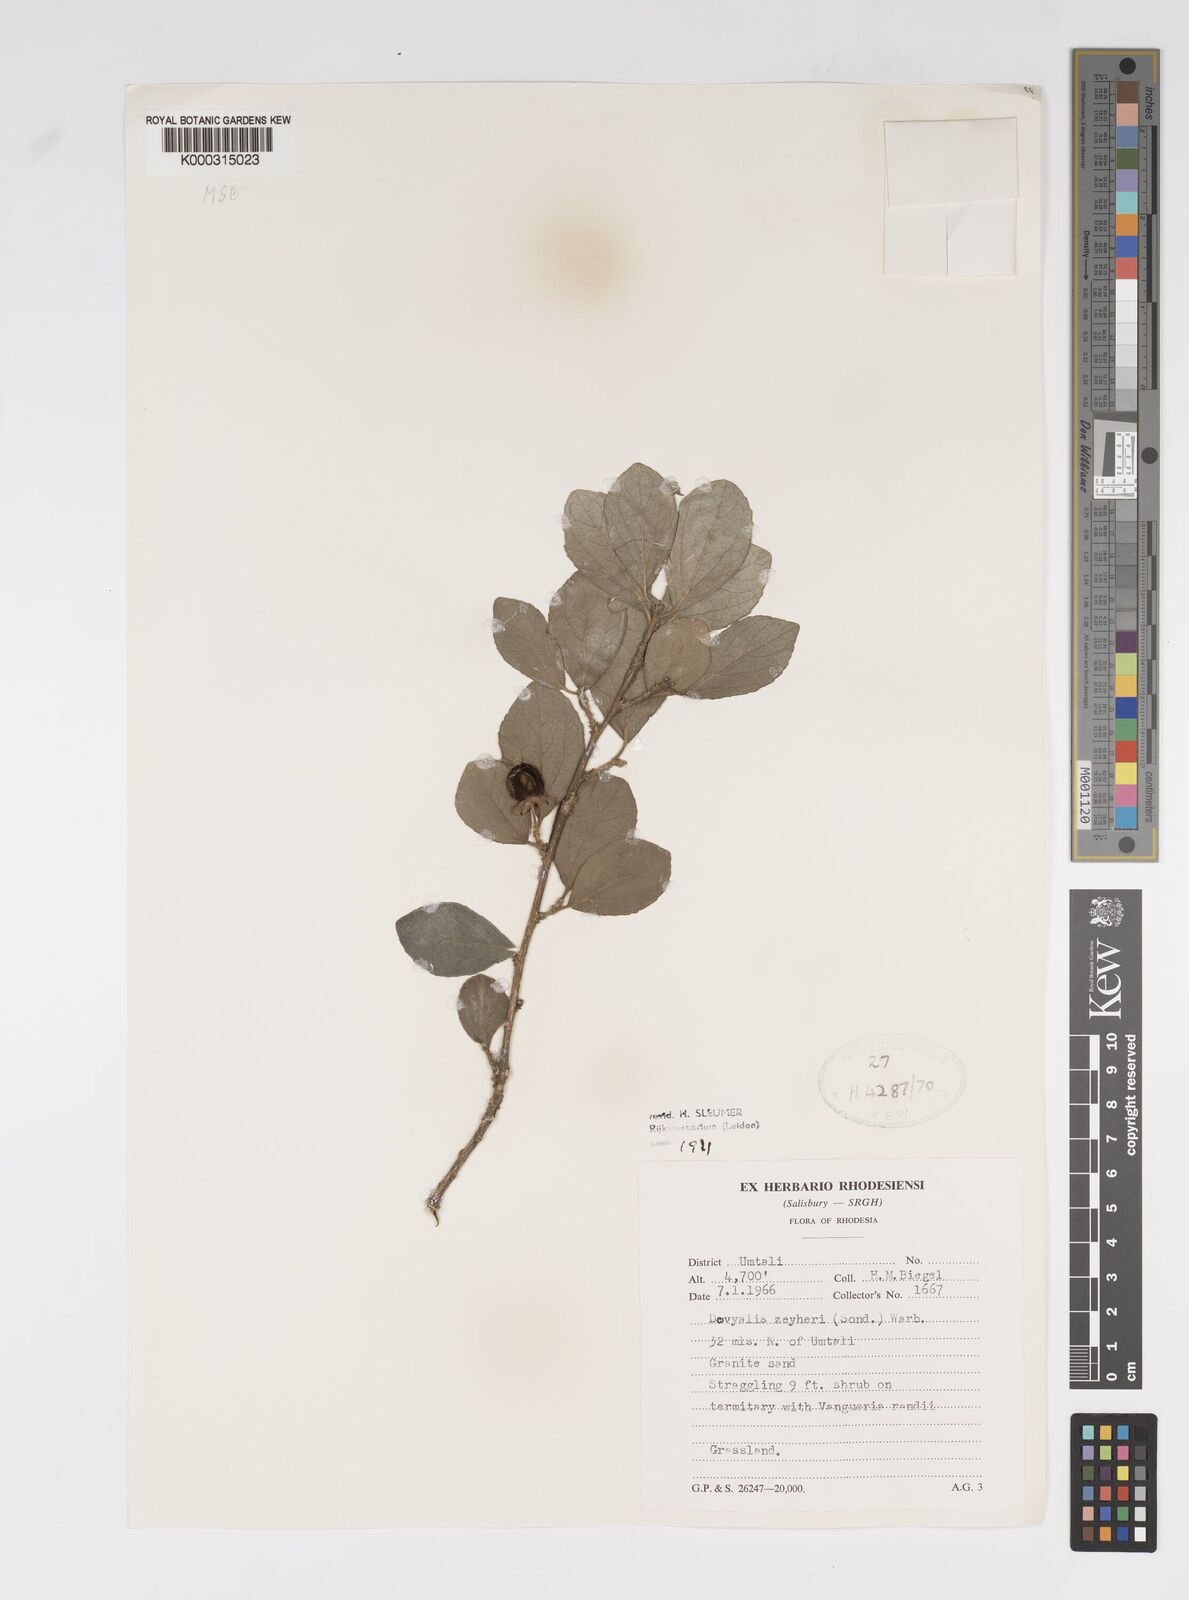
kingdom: Plantae
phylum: Tracheophyta
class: Magnoliopsida
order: Malpighiales
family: Salicaceae
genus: Dovyalis
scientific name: Dovyalis zeyheri
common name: Apricot sourberry
